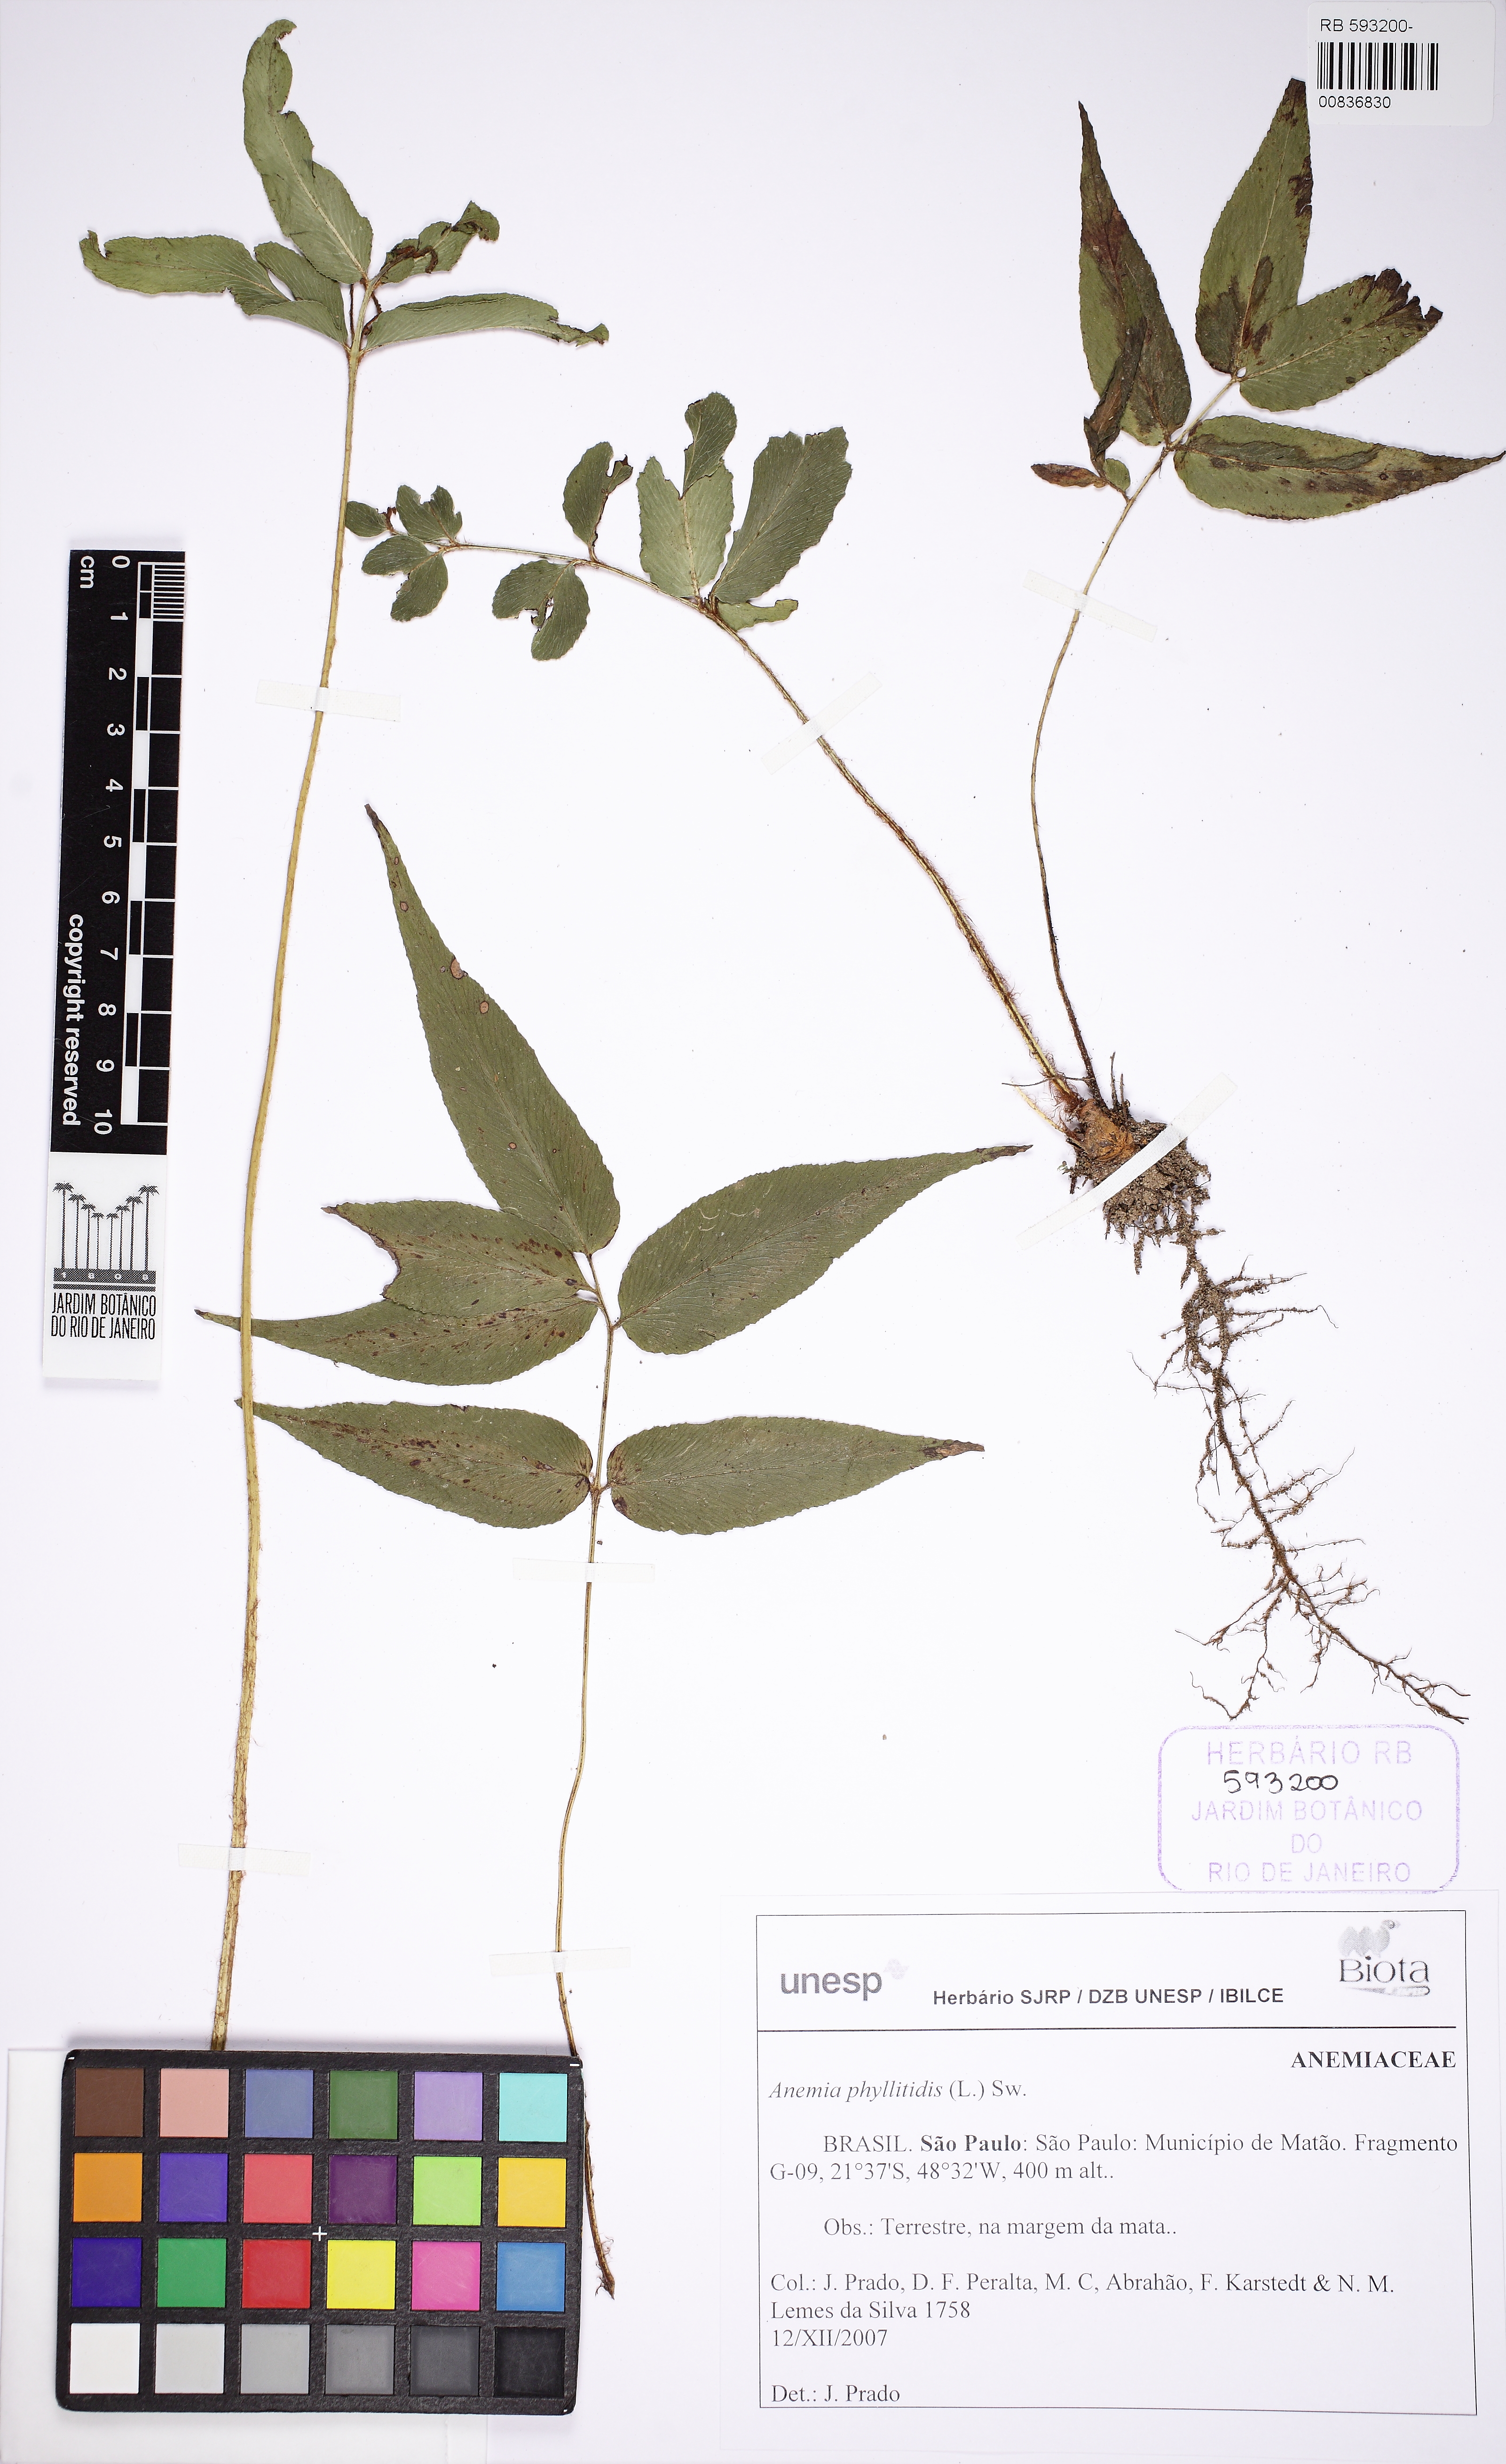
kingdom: Plantae
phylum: Tracheophyta
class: Polypodiopsida
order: Schizaeales
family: Anemiaceae
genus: Anemia
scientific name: Anemia phyllitidis
